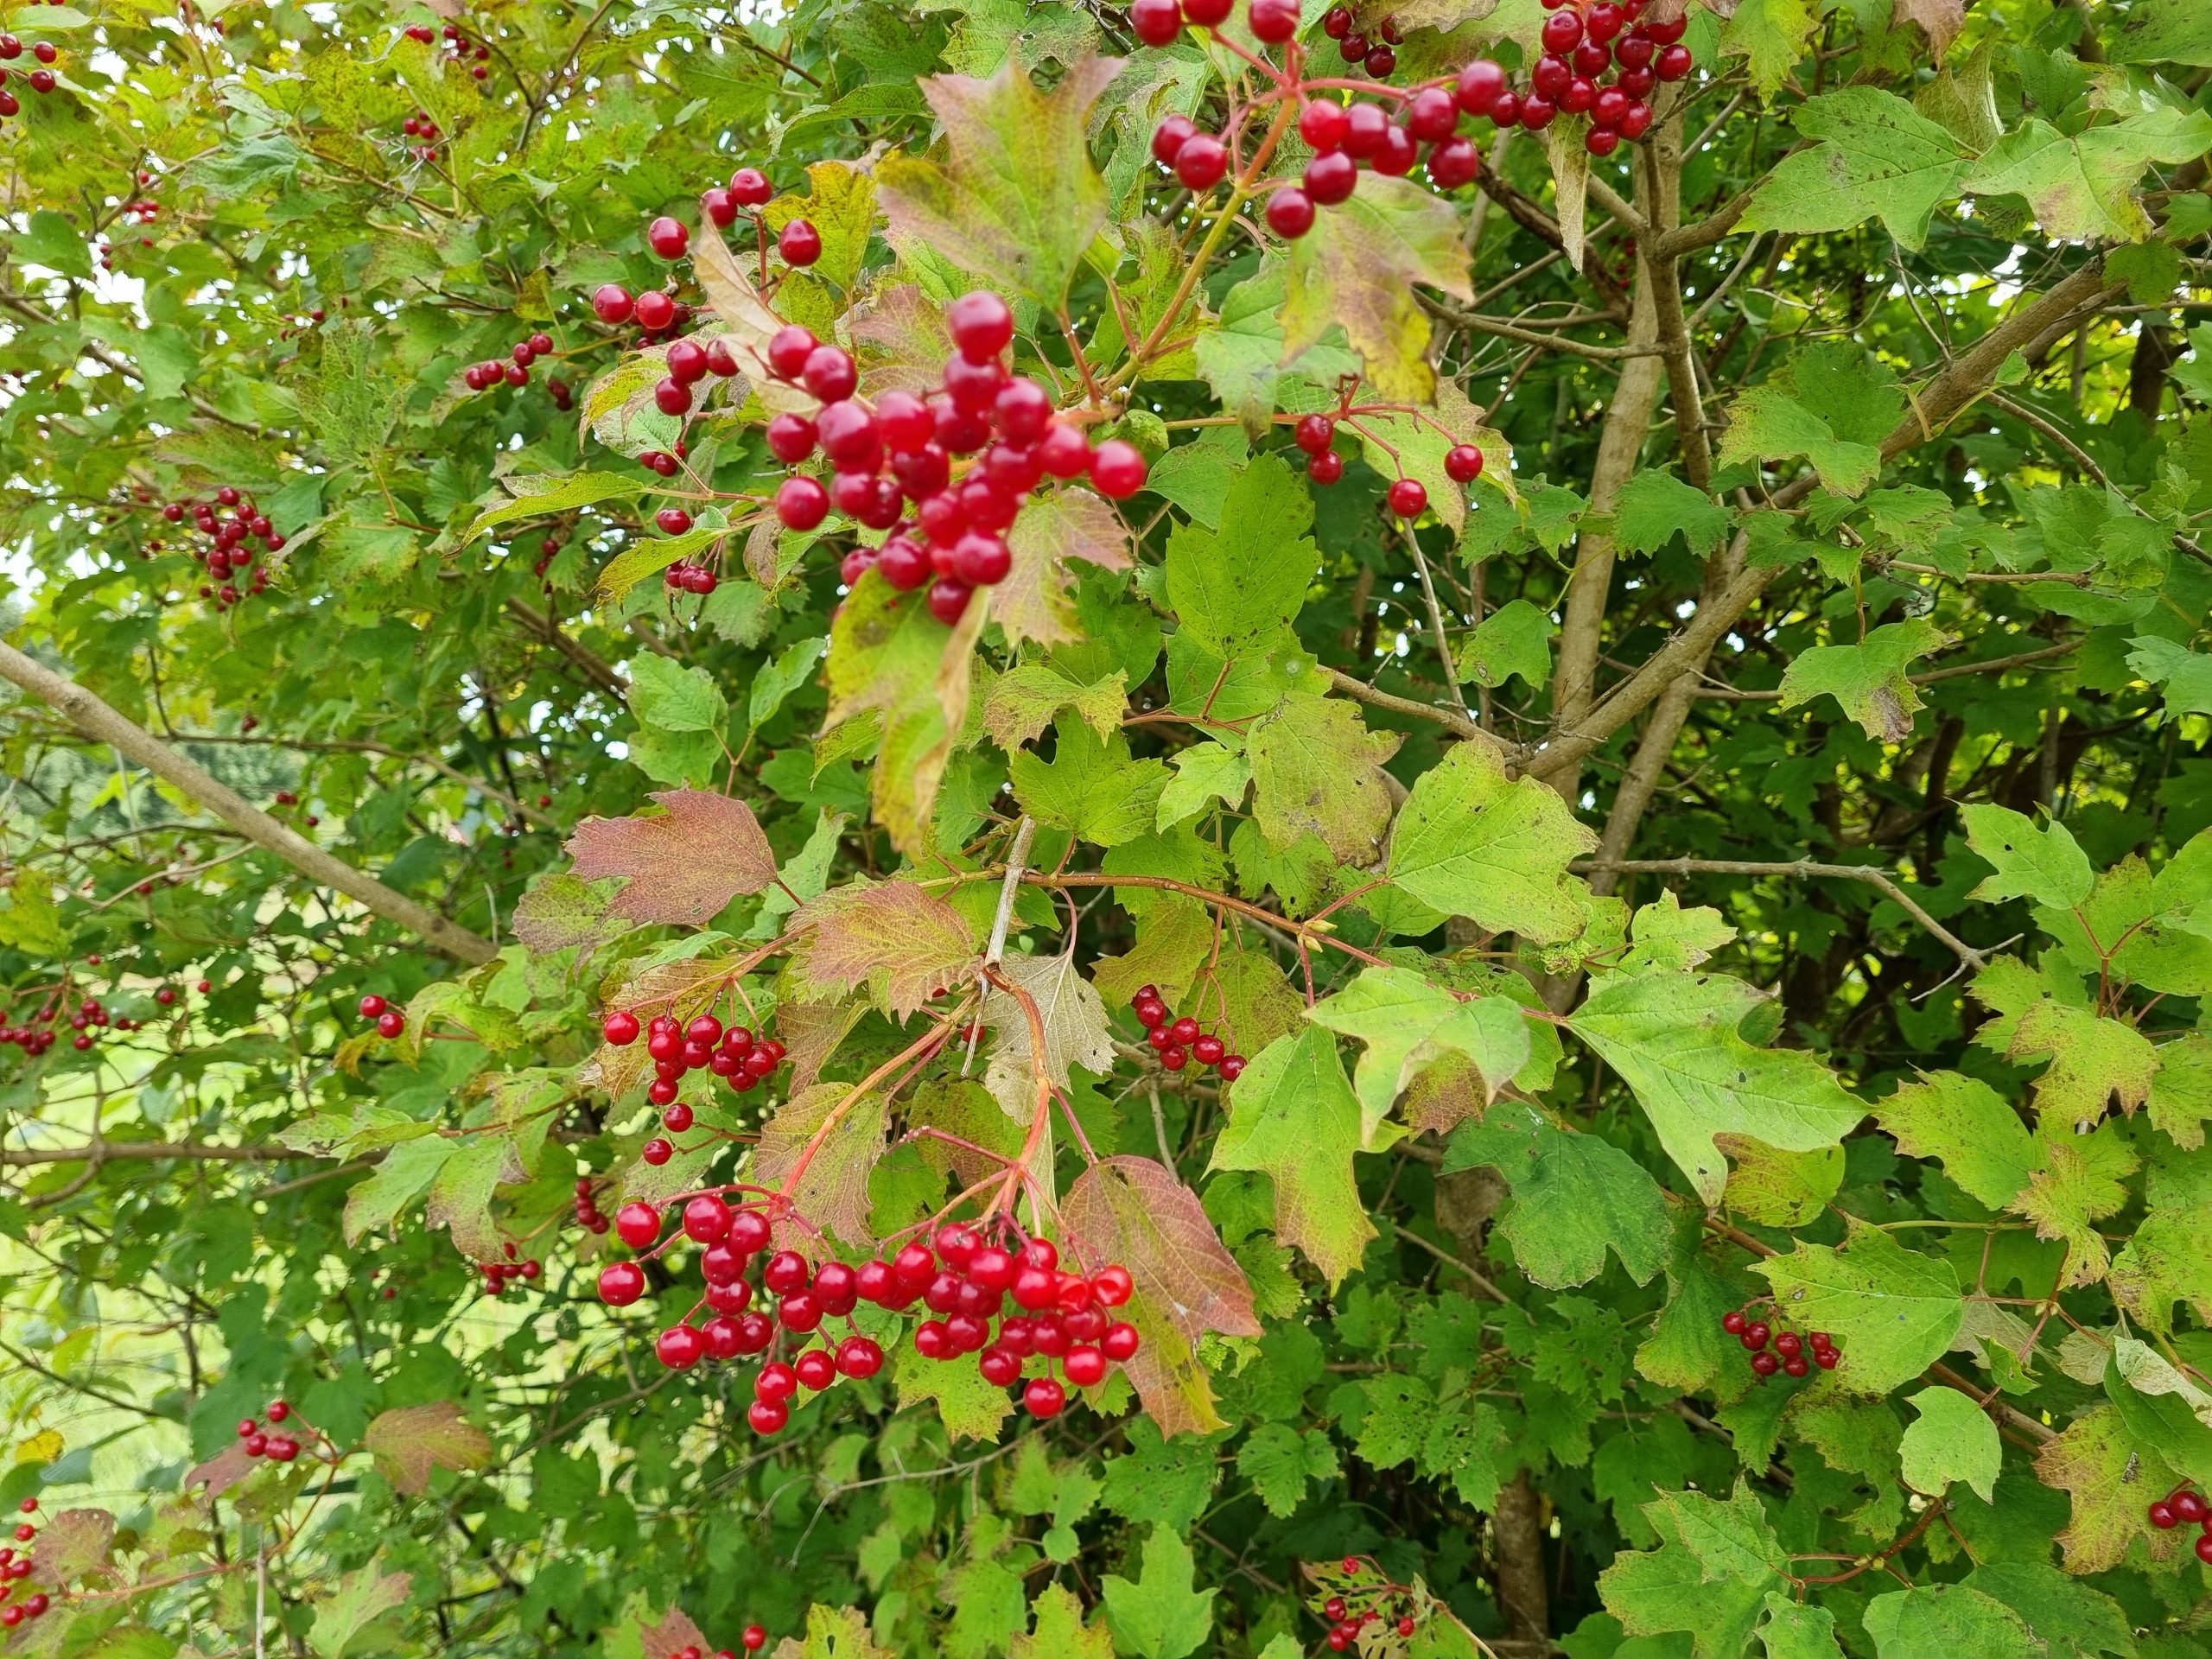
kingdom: Plantae
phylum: Tracheophyta
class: Magnoliopsida
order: Dipsacales
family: Viburnaceae
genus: Viburnum
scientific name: Viburnum opulus
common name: Kvalkved
